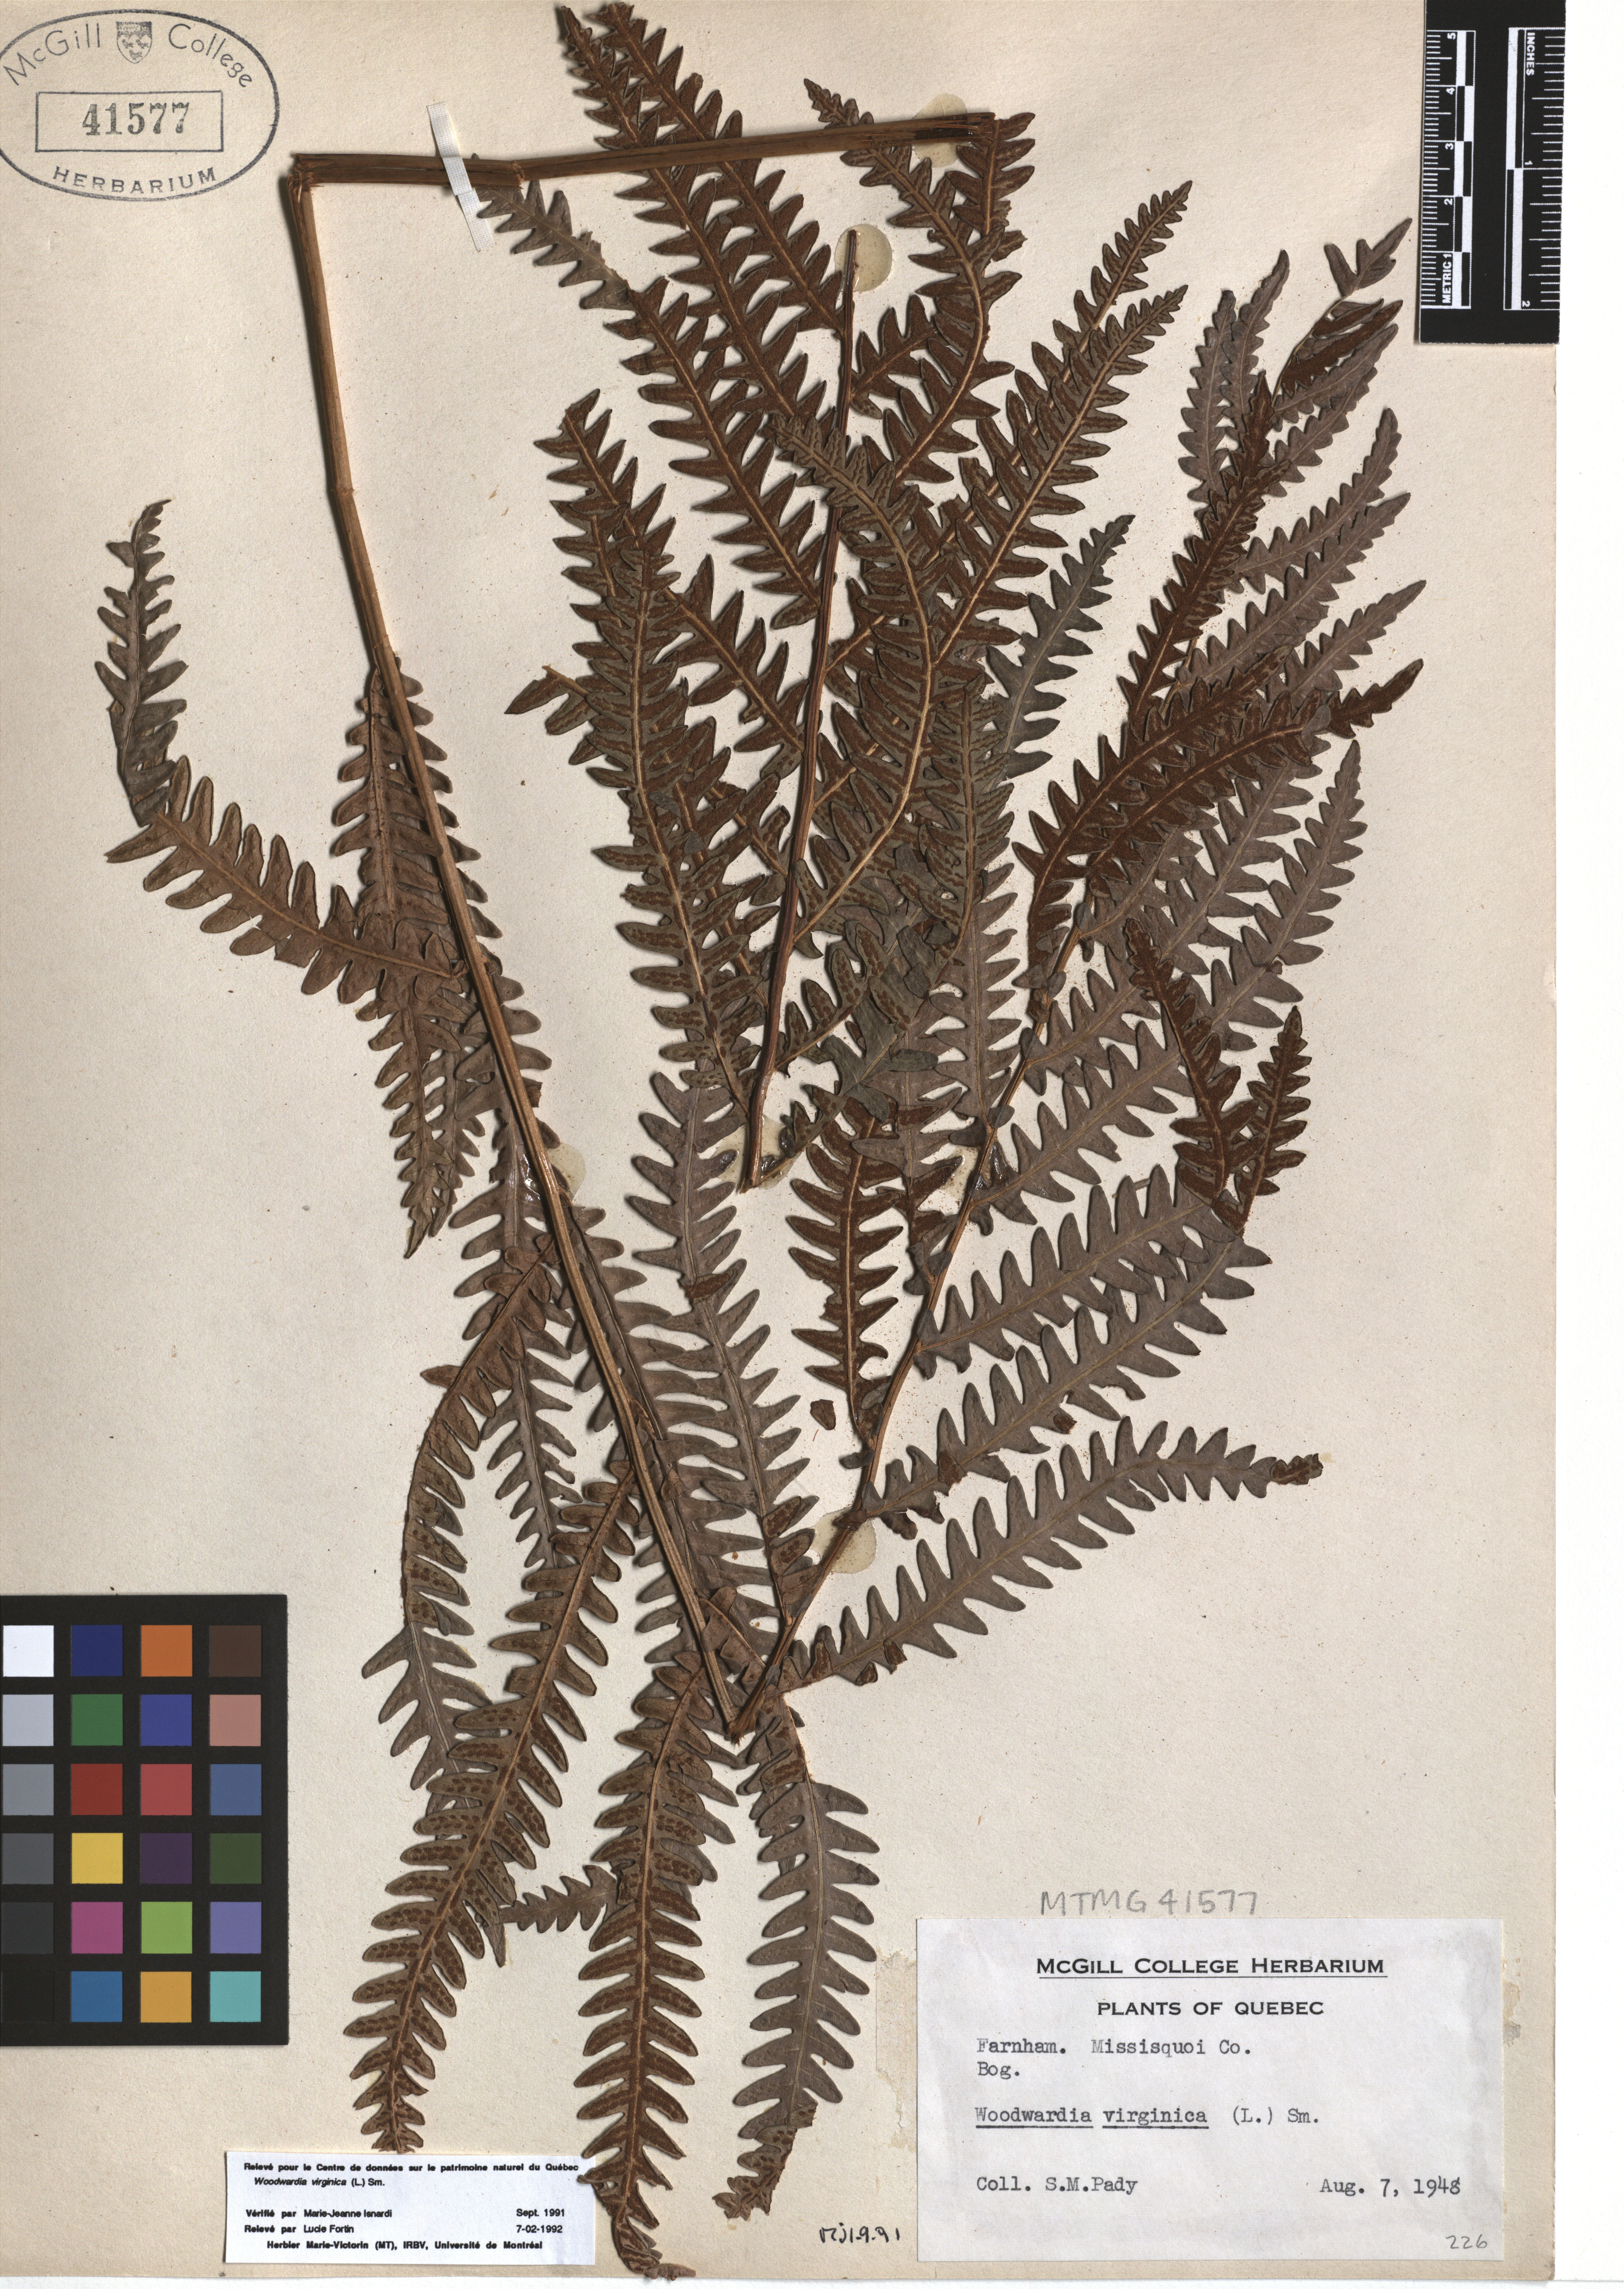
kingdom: Plantae
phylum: Tracheophyta
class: Polypodiopsida
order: Polypodiales
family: Blechnaceae
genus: Anchistea
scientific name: Anchistea virginica
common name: Virginia chain fern
